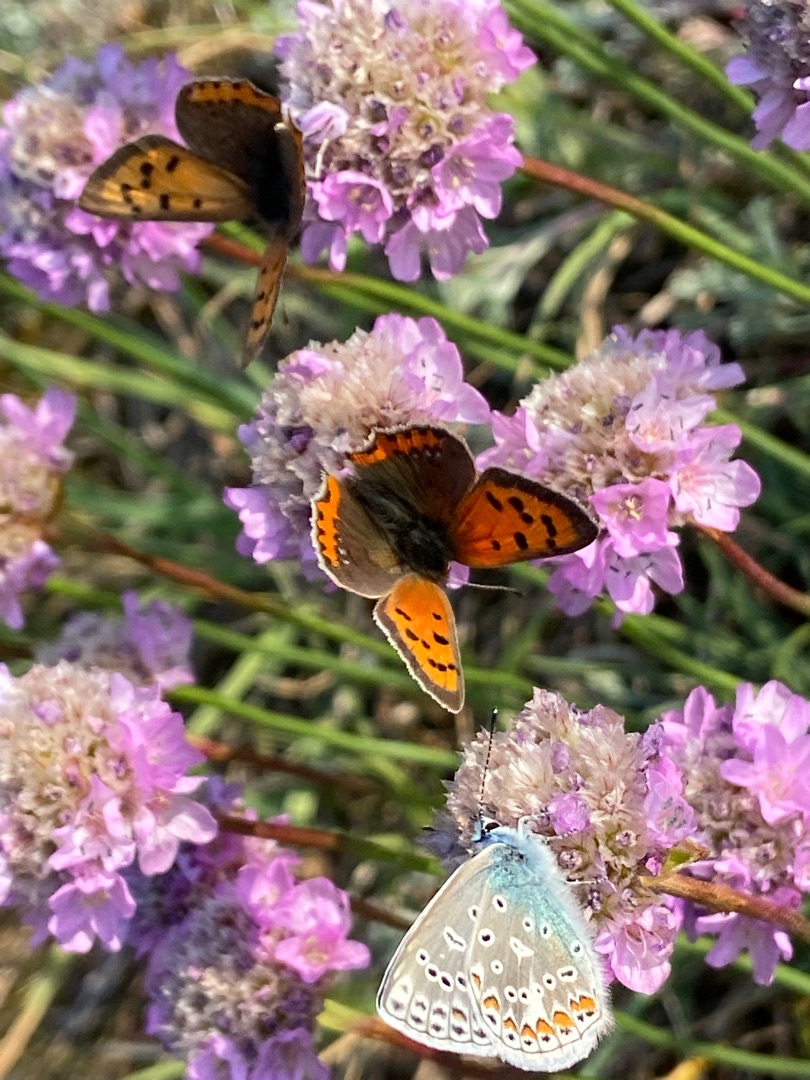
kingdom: Animalia
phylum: Arthropoda
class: Insecta
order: Lepidoptera
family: Lycaenidae
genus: Lycaena
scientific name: Lycaena phlaeas
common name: Lille ildfugl
